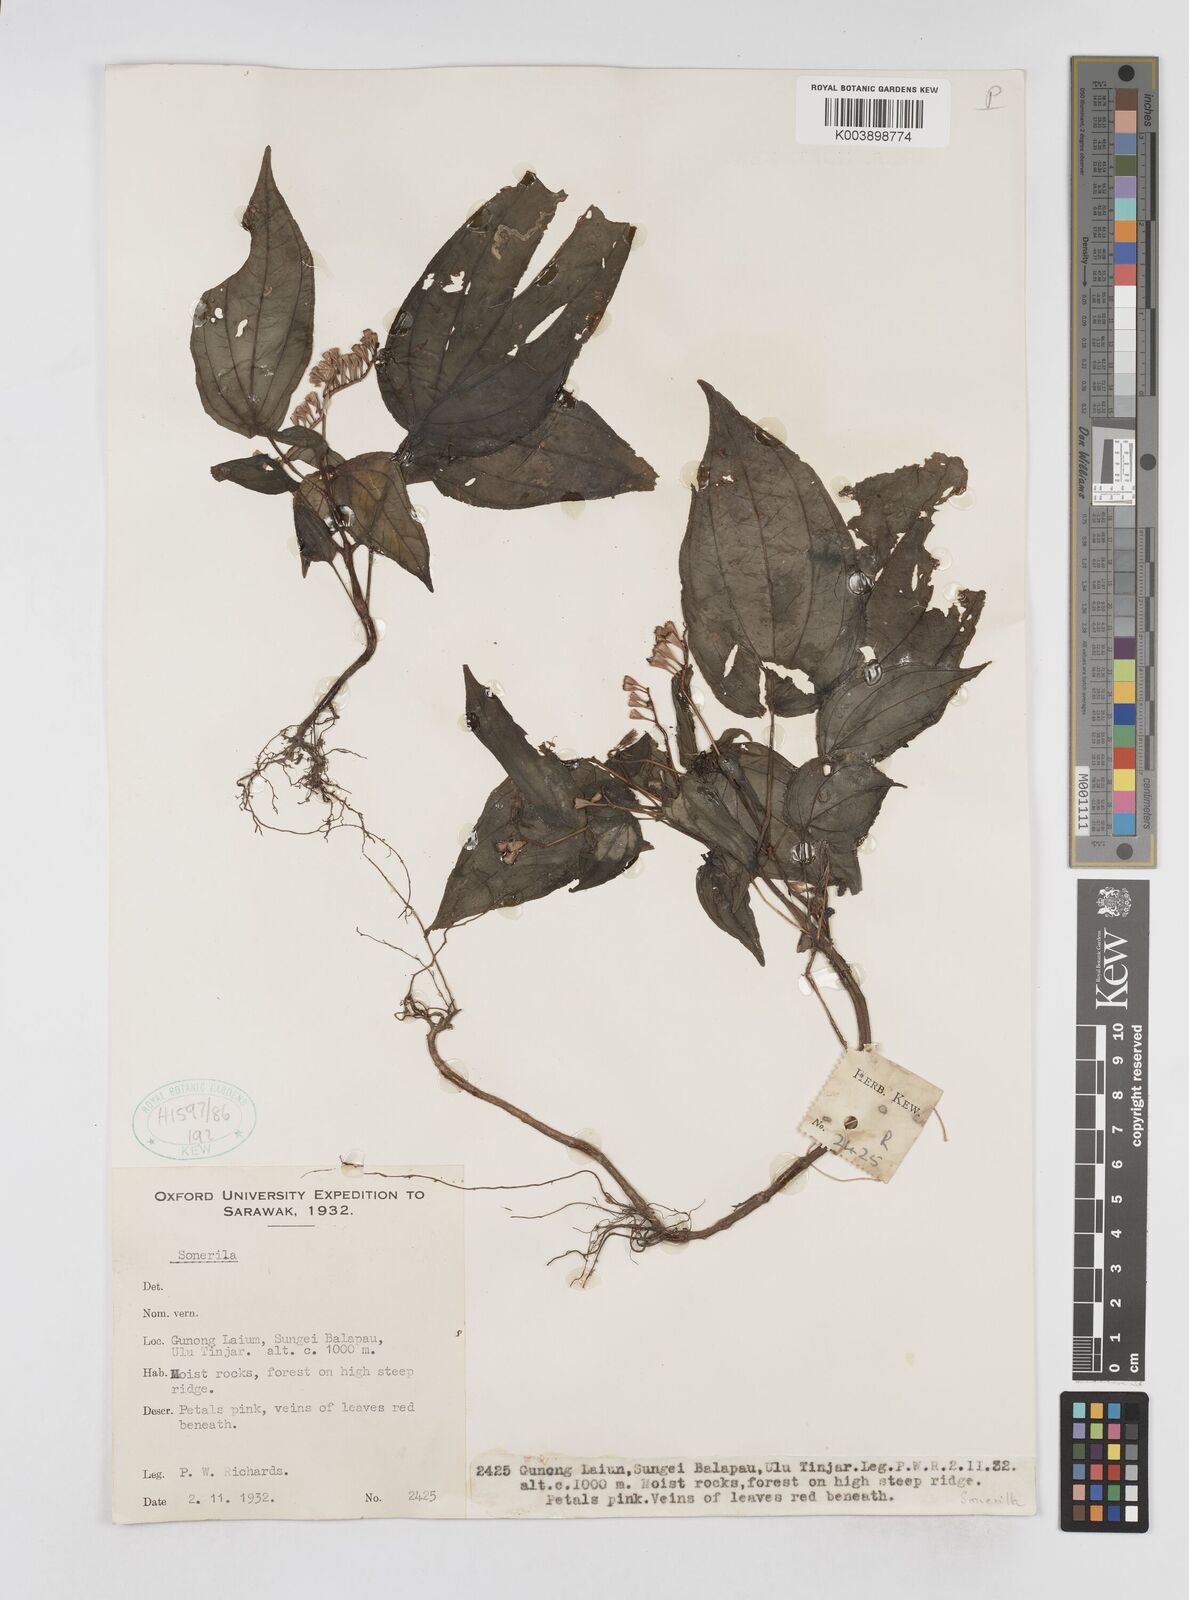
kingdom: Plantae
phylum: Tracheophyta
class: Magnoliopsida
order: Myrtales
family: Melastomataceae
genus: Sonerila
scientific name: Sonerila
